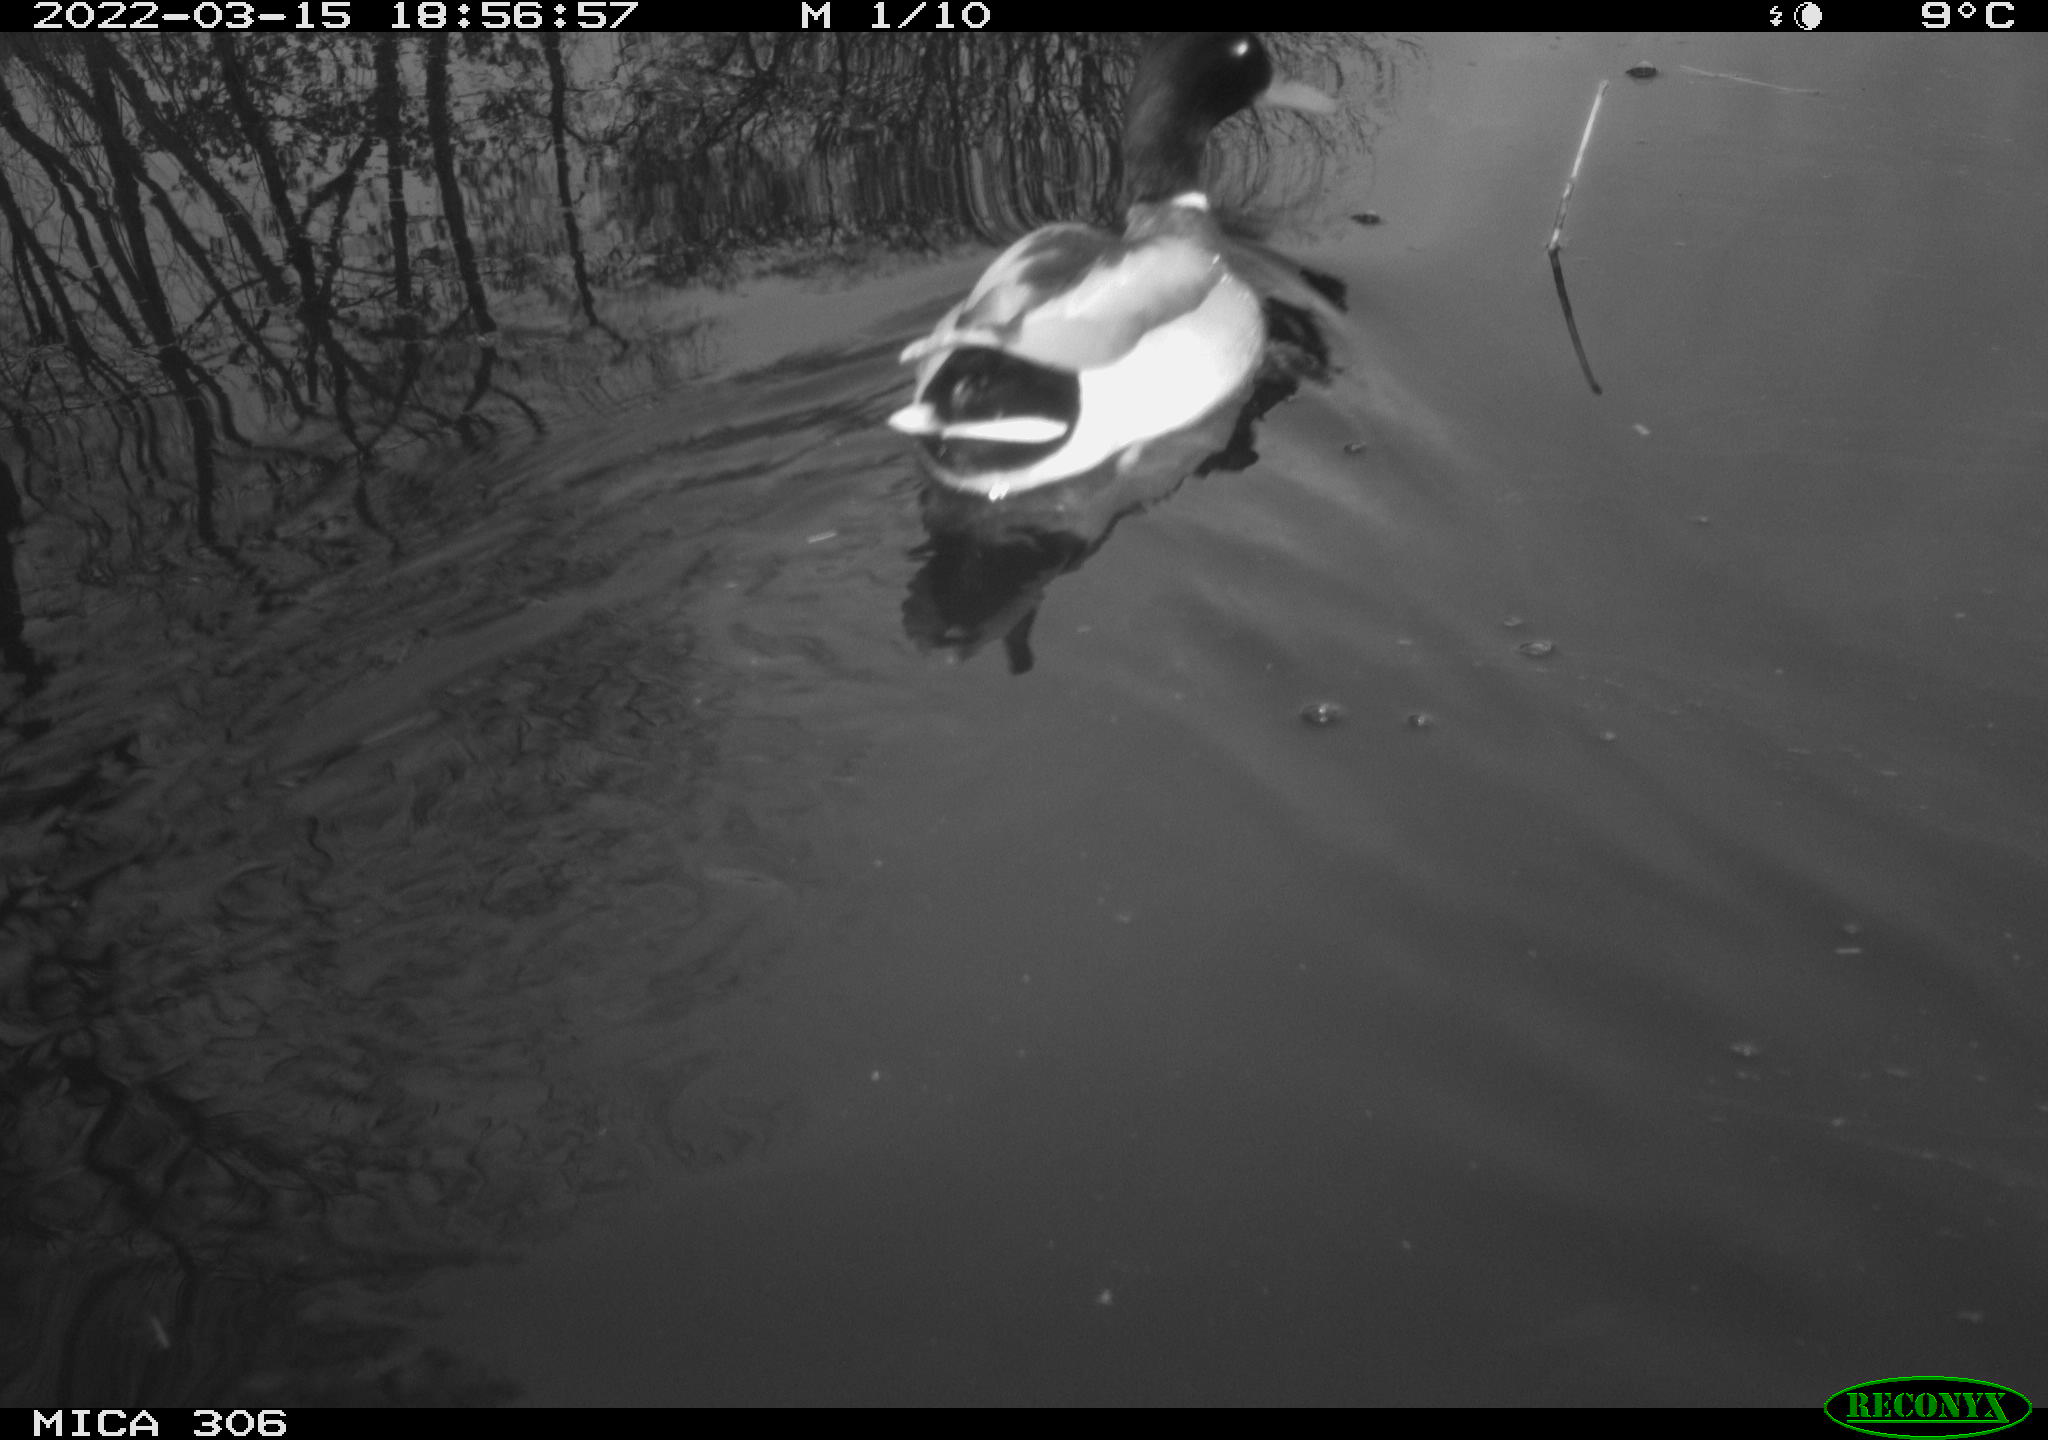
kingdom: Animalia
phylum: Chordata
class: Aves
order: Anseriformes
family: Anatidae
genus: Anas
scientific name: Anas
